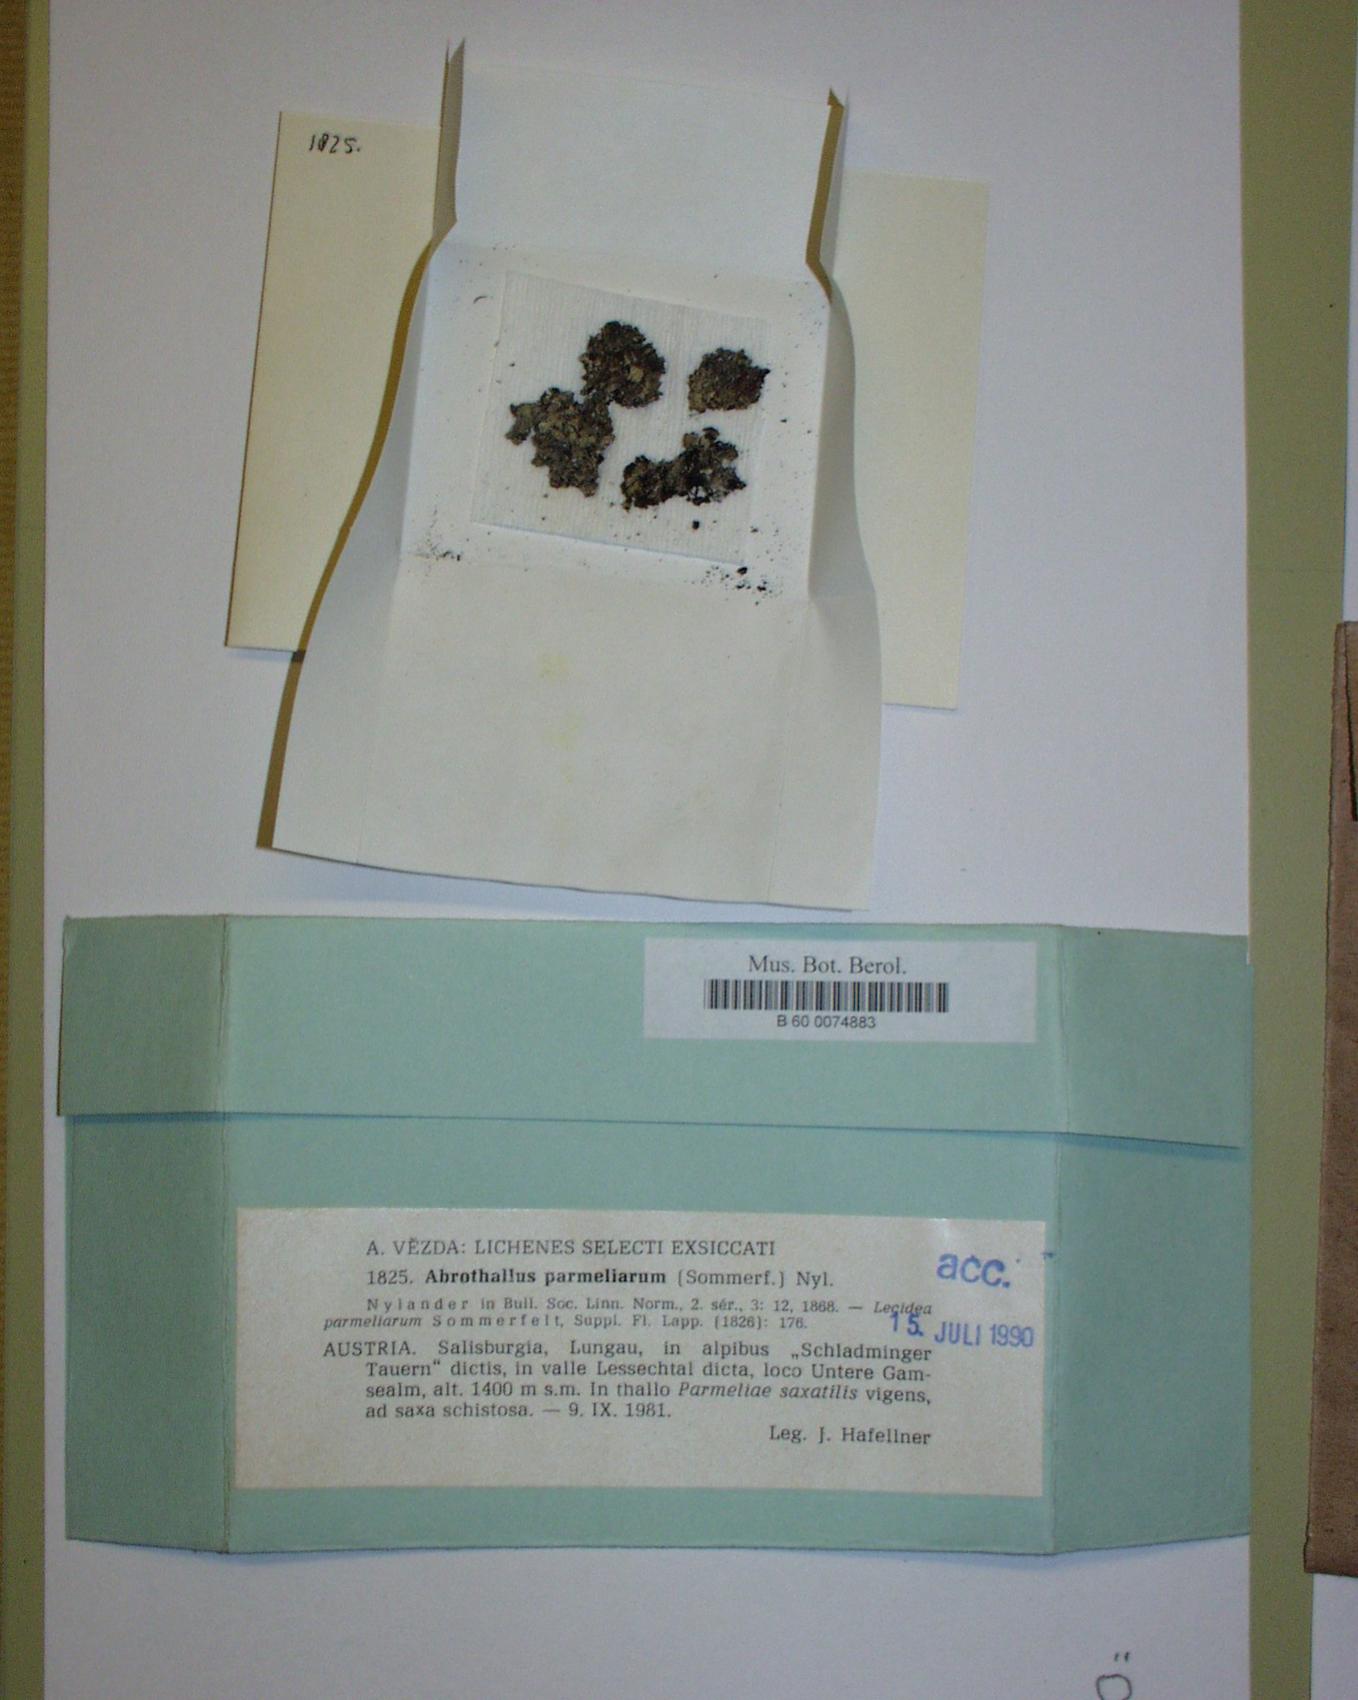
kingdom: Fungi
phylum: Ascomycota
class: Dothideomycetes
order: Abrothallales
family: Abrothallaceae
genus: Abrothallus
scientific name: Abrothallus parmeliarum
